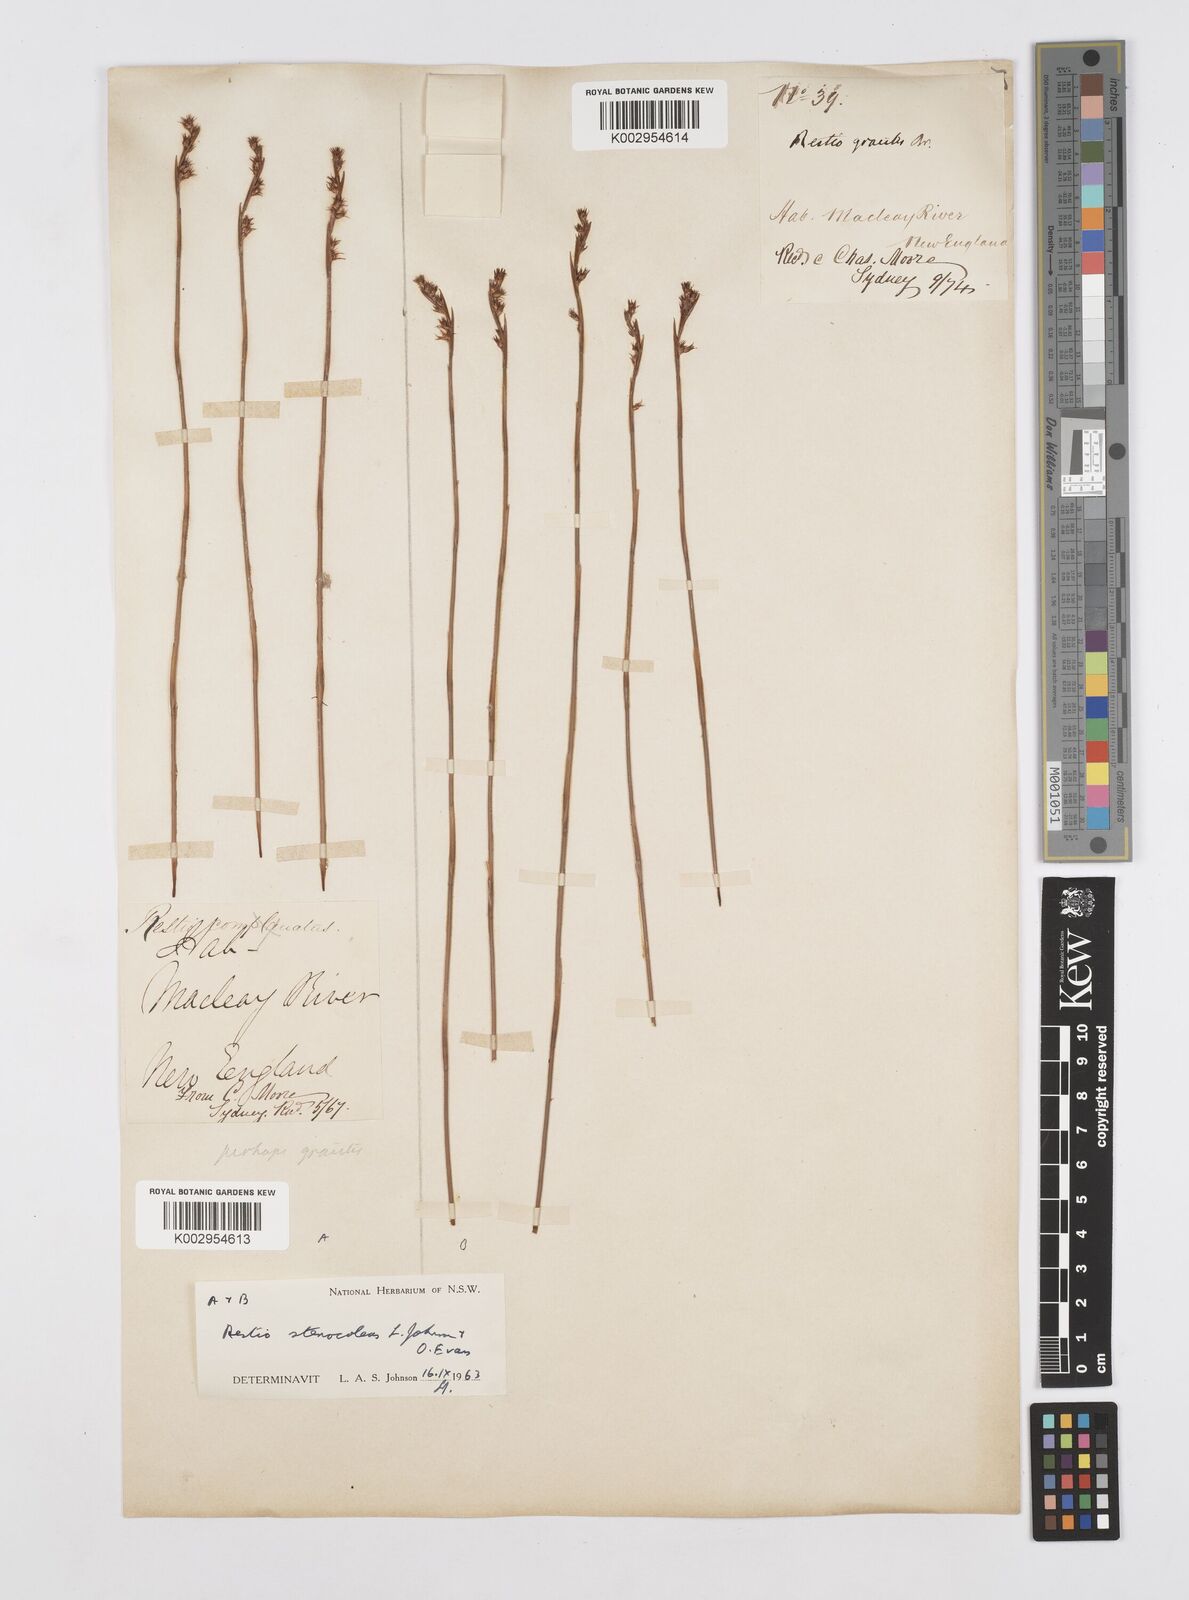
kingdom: Plantae
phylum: Tracheophyta
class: Liliopsida
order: Poales
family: Restionaceae
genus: Baloskion
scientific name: Baloskion stenocoleum
